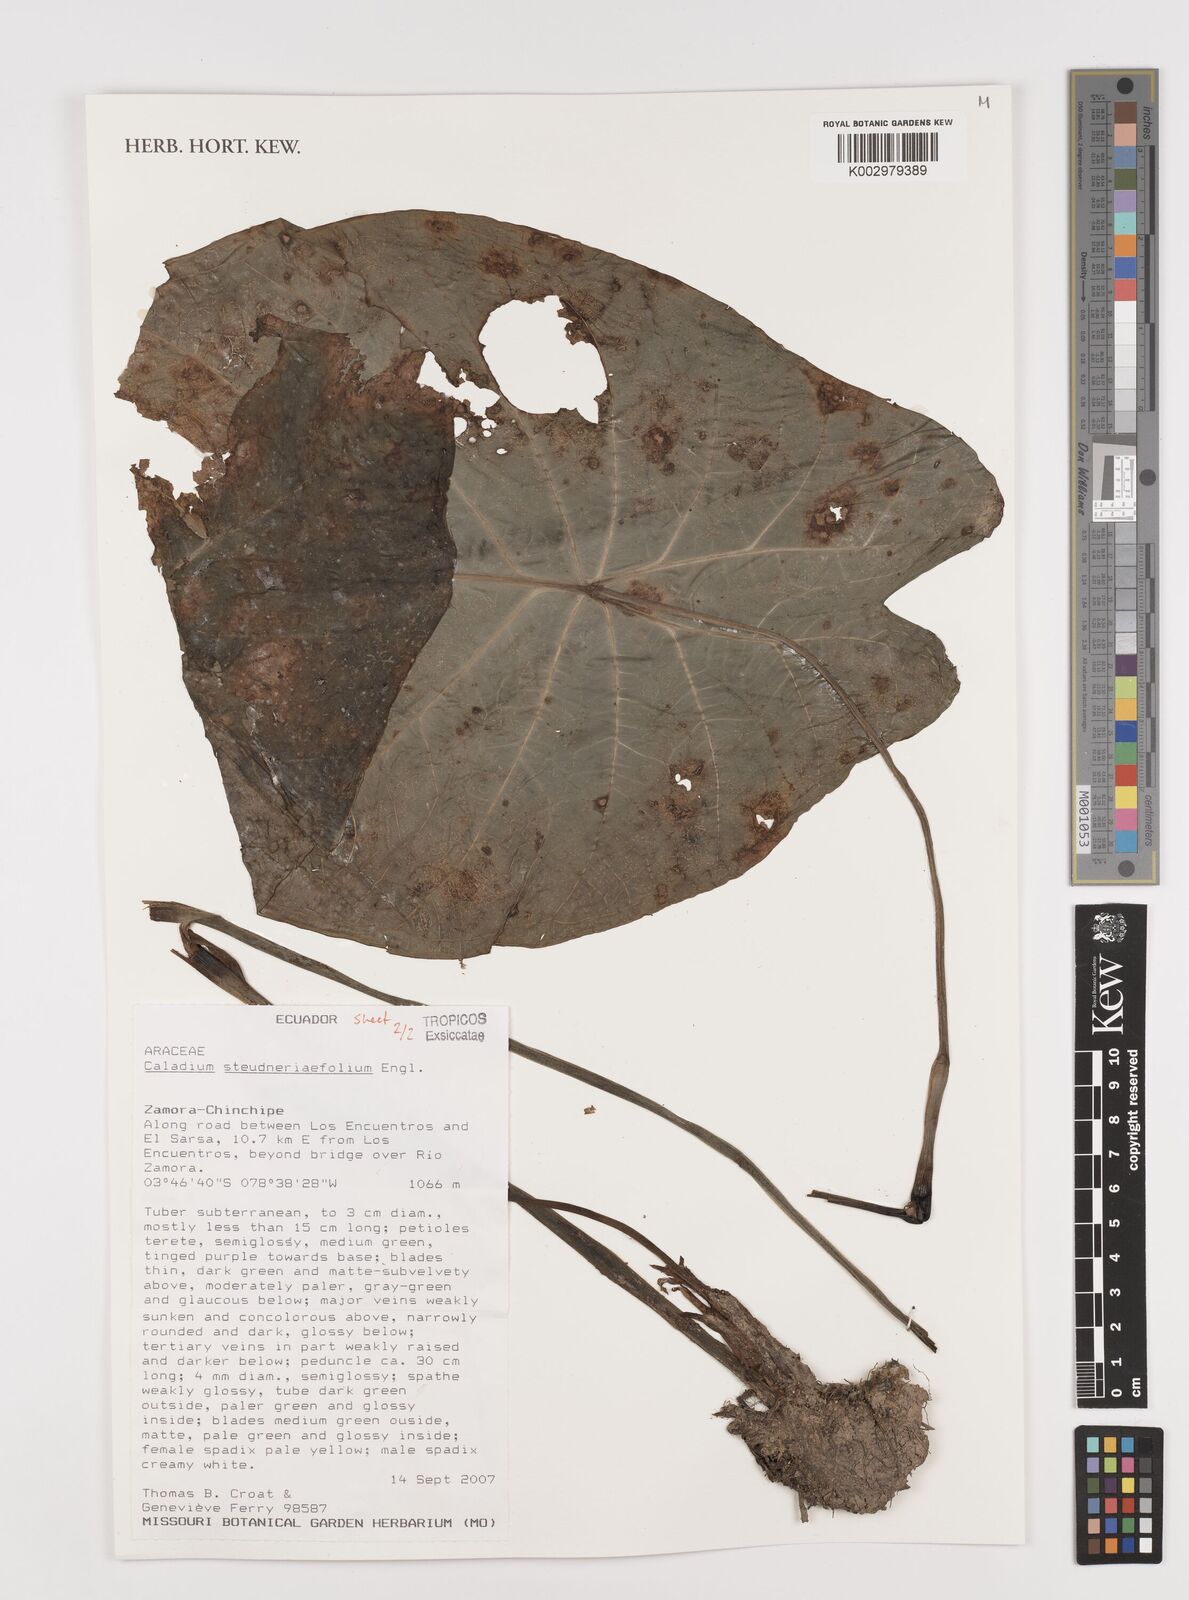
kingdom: Plantae
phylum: Tracheophyta
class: Liliopsida
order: Alismatales
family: Araceae
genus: Caladium
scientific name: Caladium steudnerifolium
